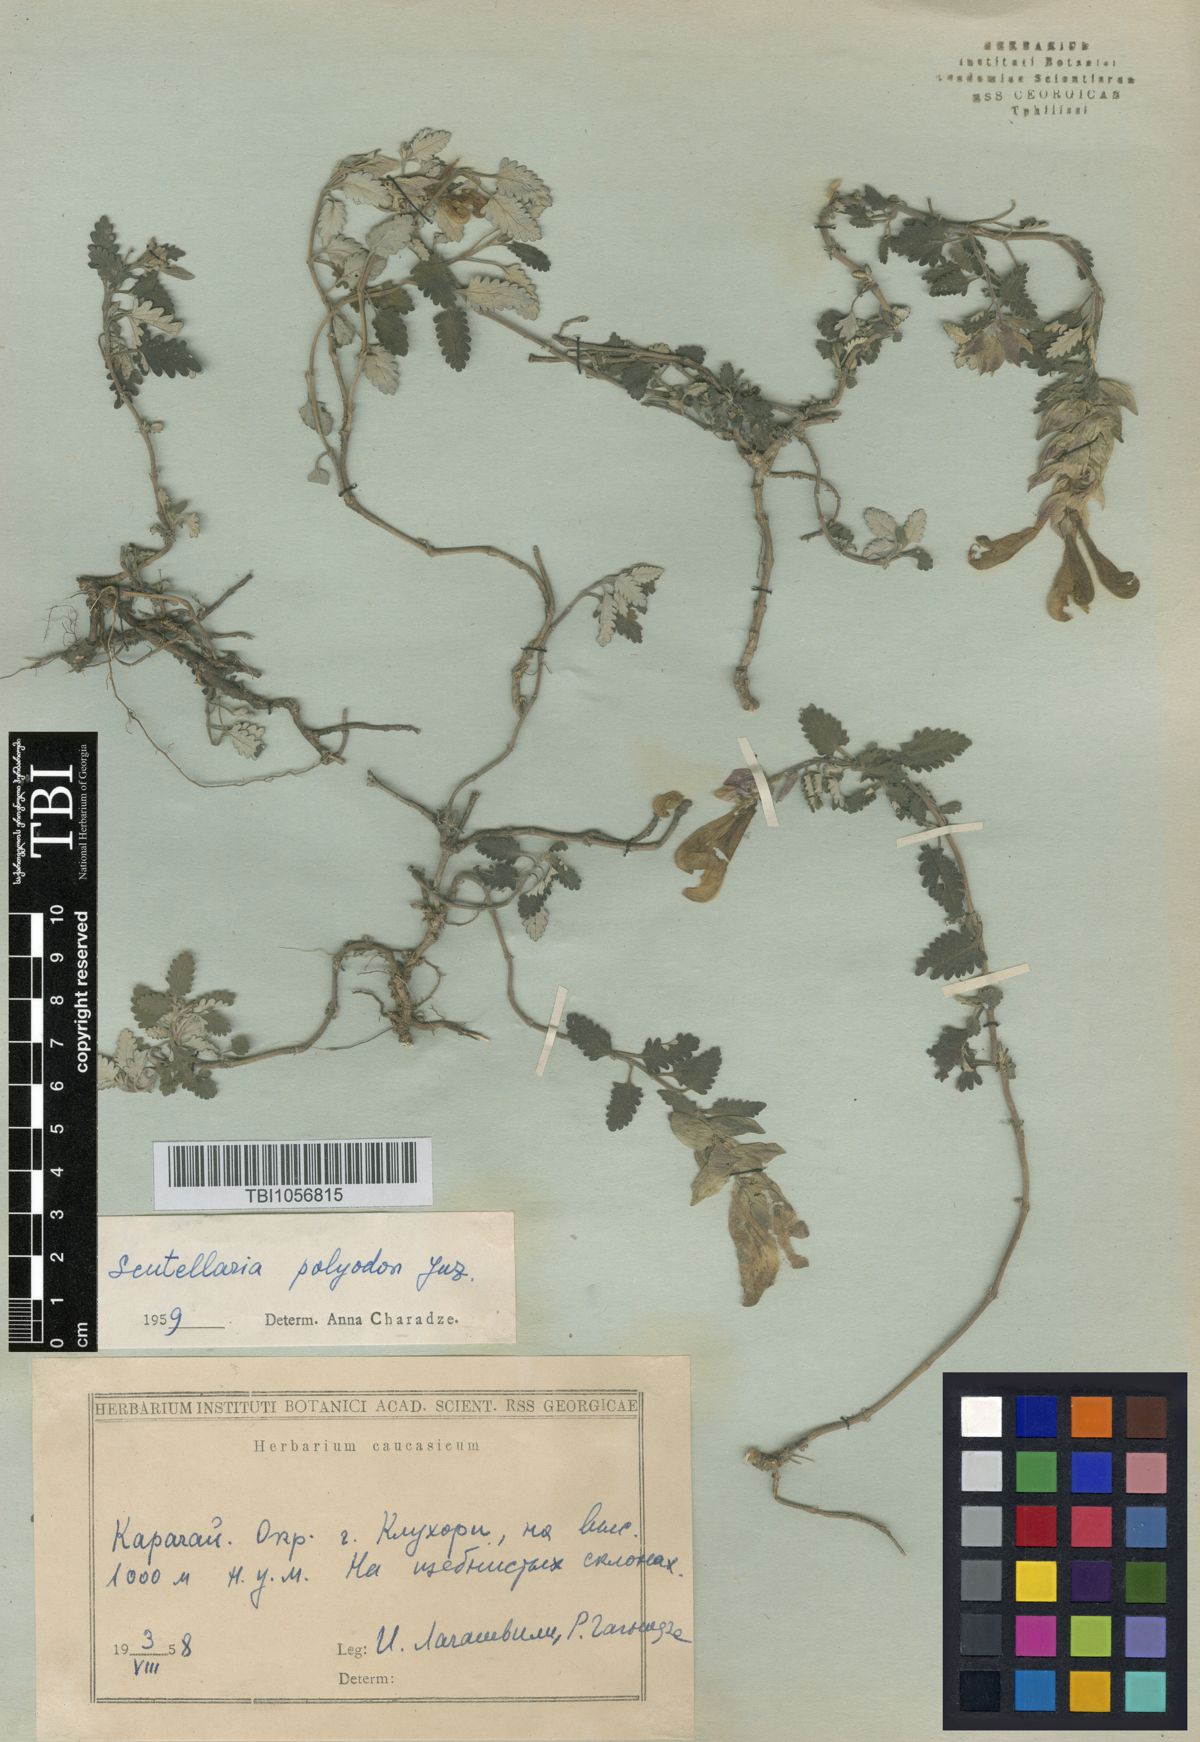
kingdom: Plantae
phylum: Tracheophyta
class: Magnoliopsida
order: Lamiales
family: Lamiaceae
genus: Scutellaria
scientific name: Scutellaria caucasica
